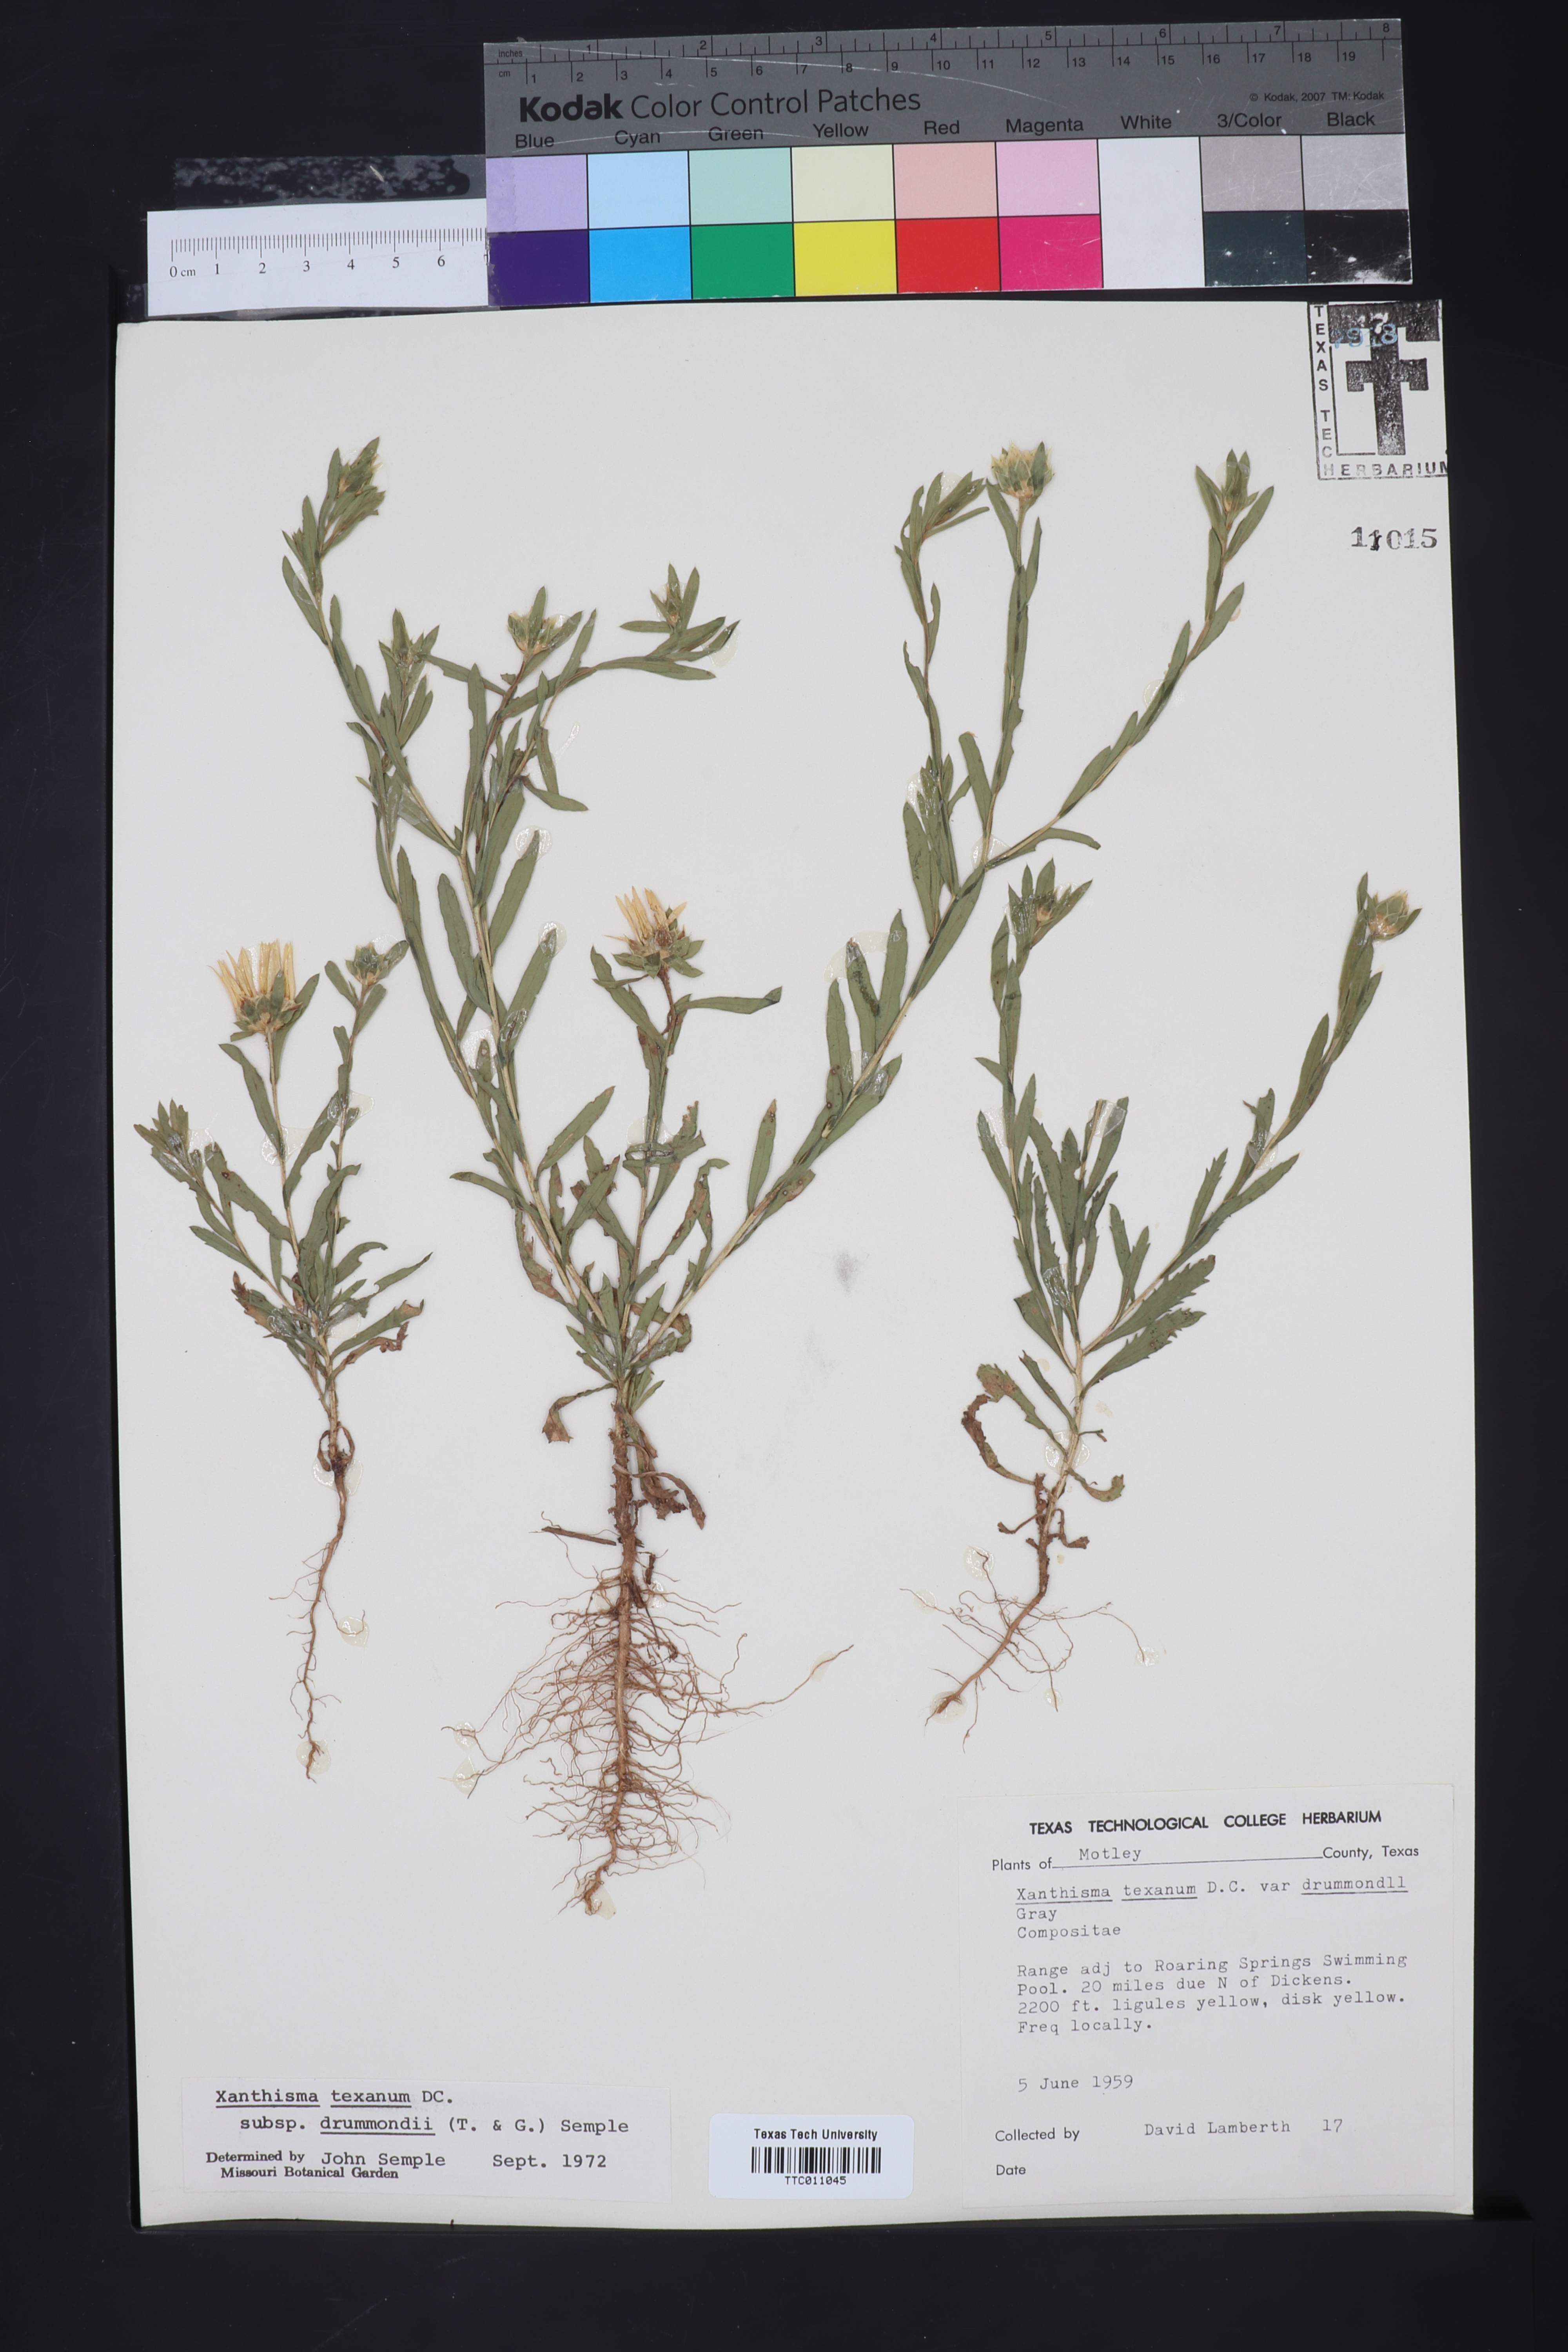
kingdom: Plantae
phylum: Tracheophyta
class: Magnoliopsida
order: Asterales
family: Asteraceae
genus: Xanthisma
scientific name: Xanthisma texanum
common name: Texas sleepy daisy
